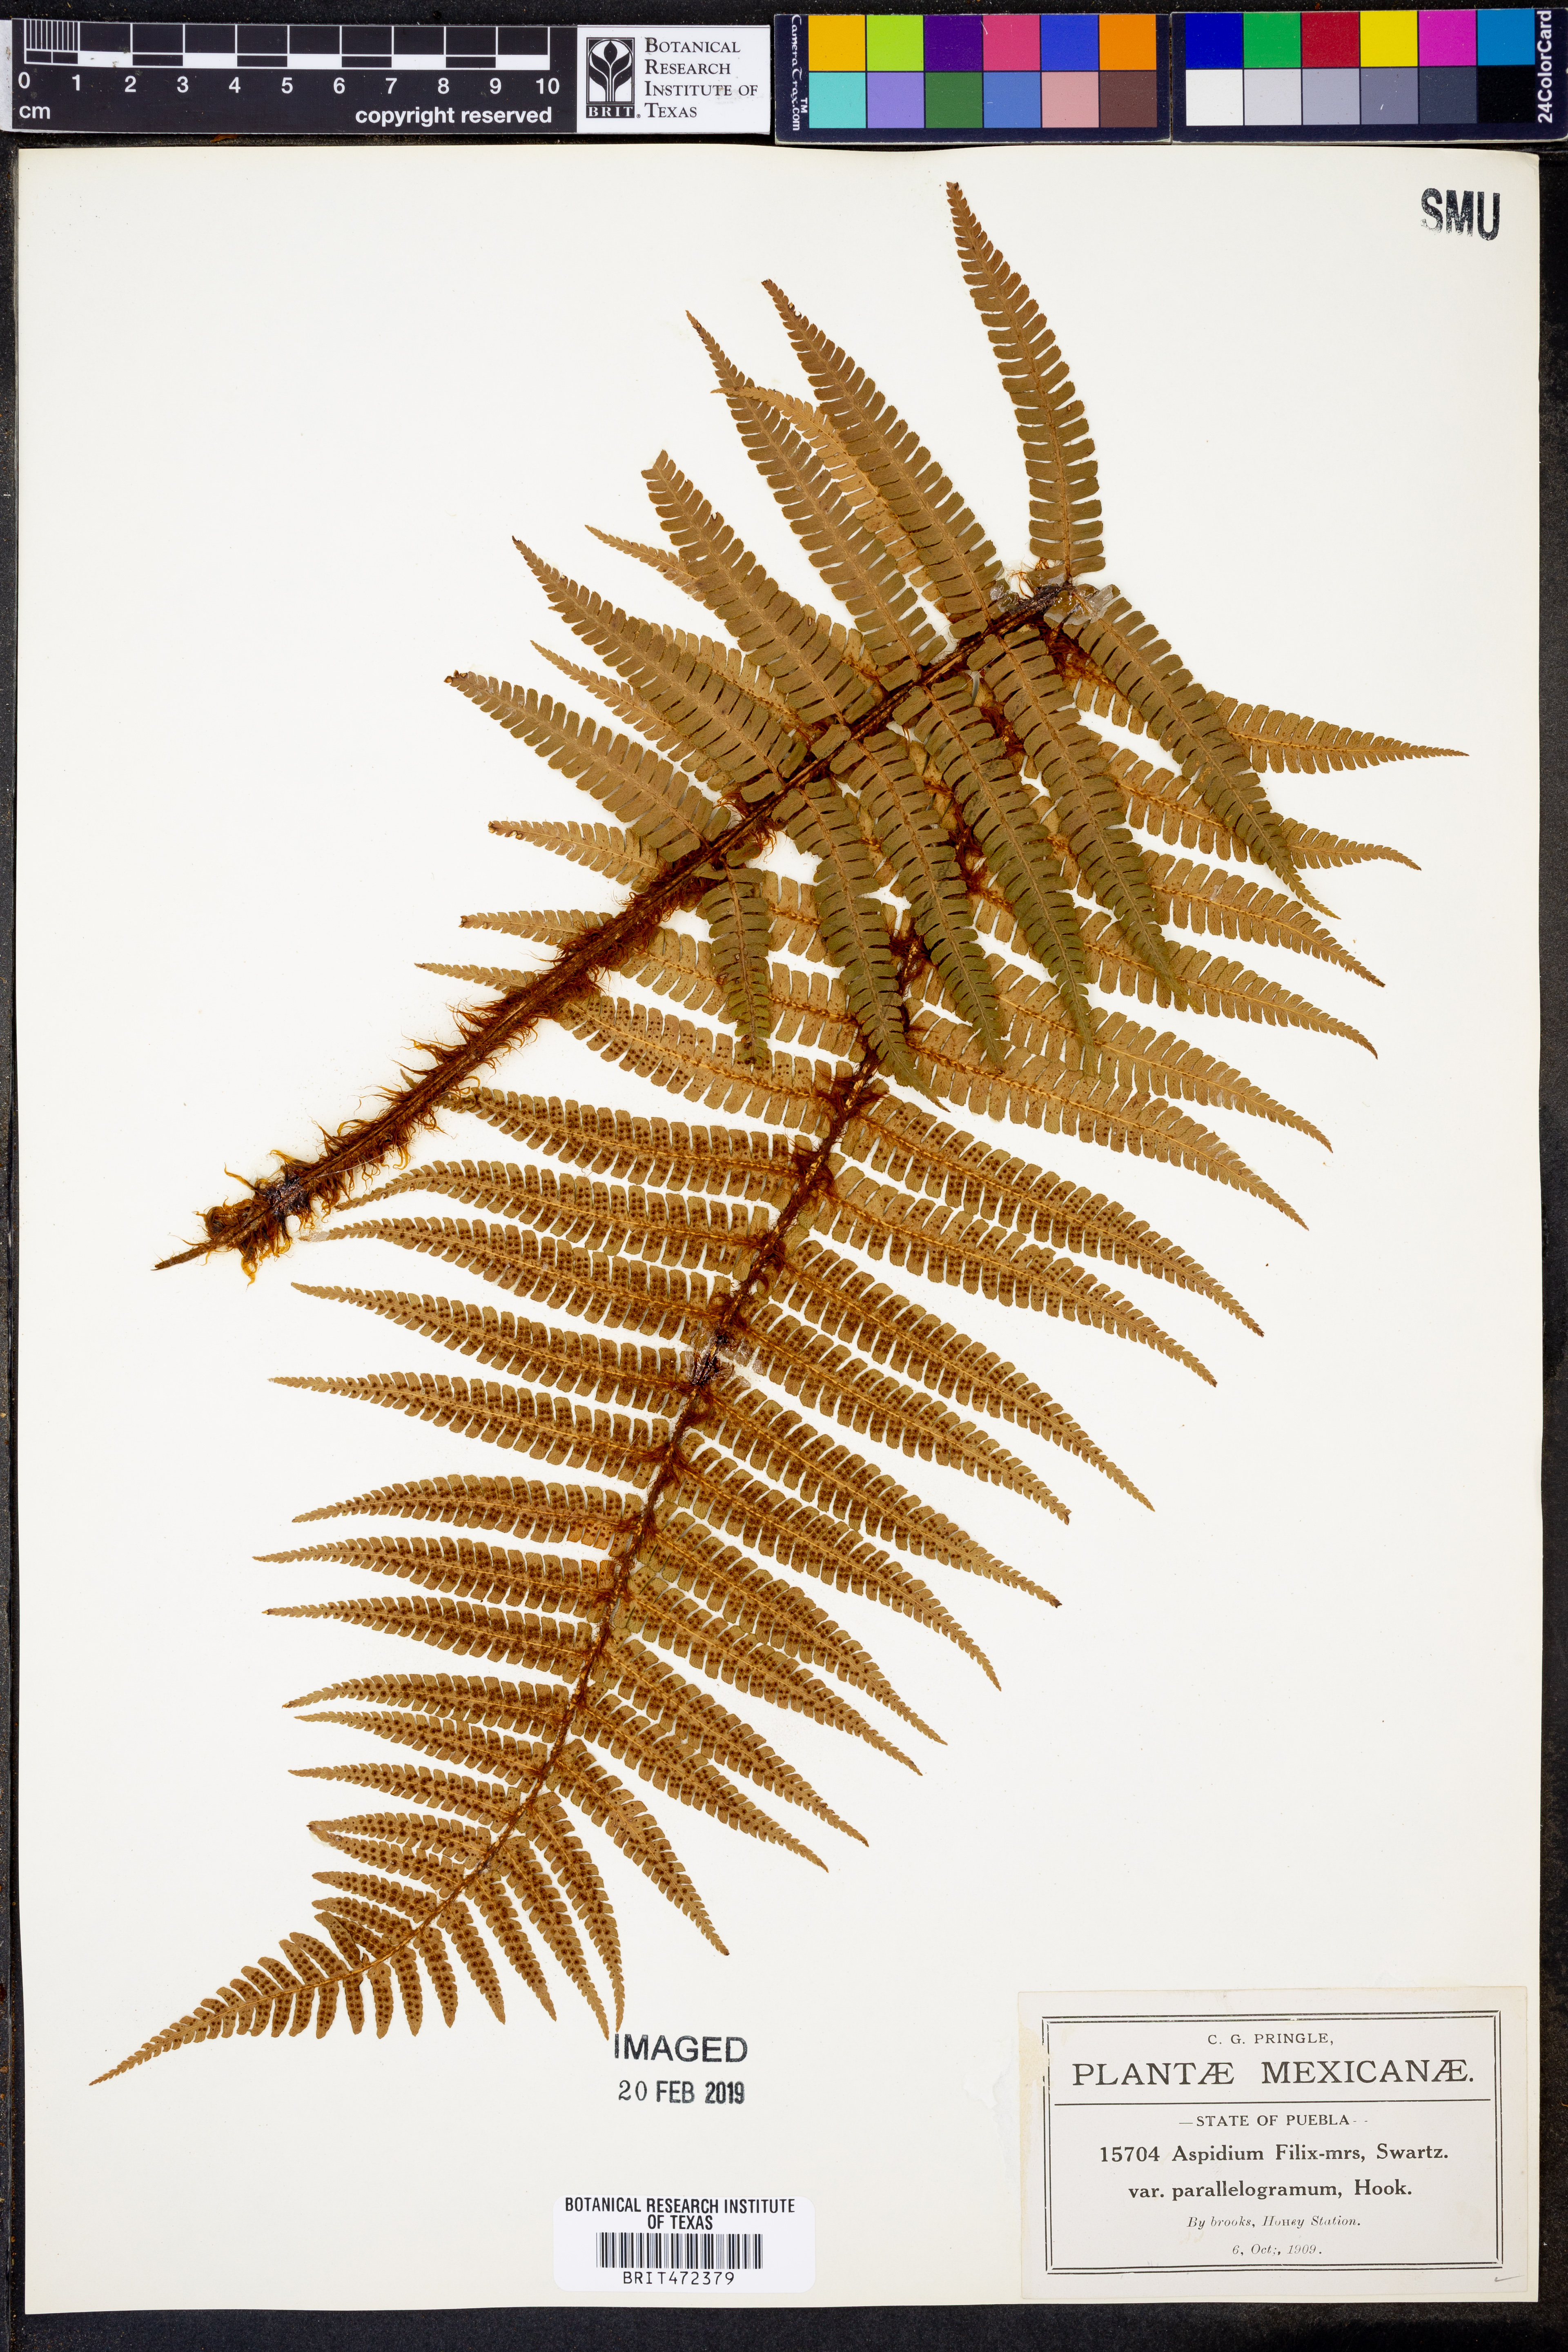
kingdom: Plantae
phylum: Tracheophyta
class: Polypodiopsida
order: Polypodiales
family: Dryopteridaceae
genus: Dryopteris
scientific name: Dryopteris wallichiana
